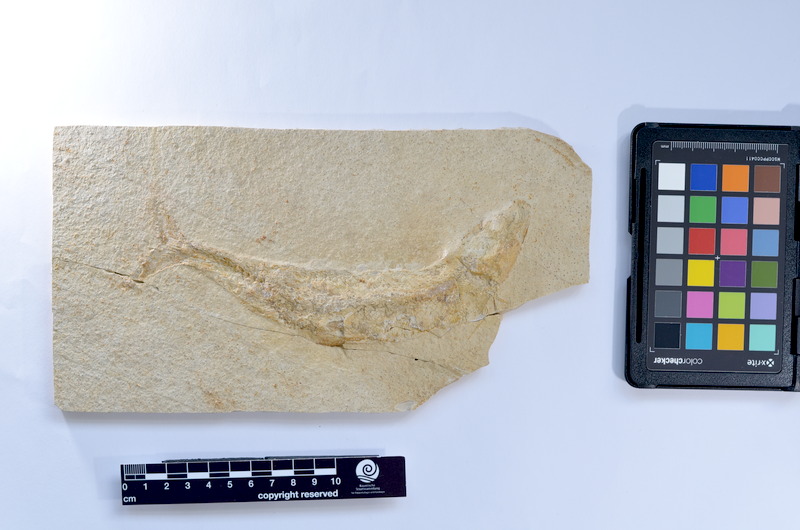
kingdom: Animalia
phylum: Chordata
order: Elopiformes
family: Anaethalionidae
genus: Anaethalion
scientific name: Anaethalion knorri
